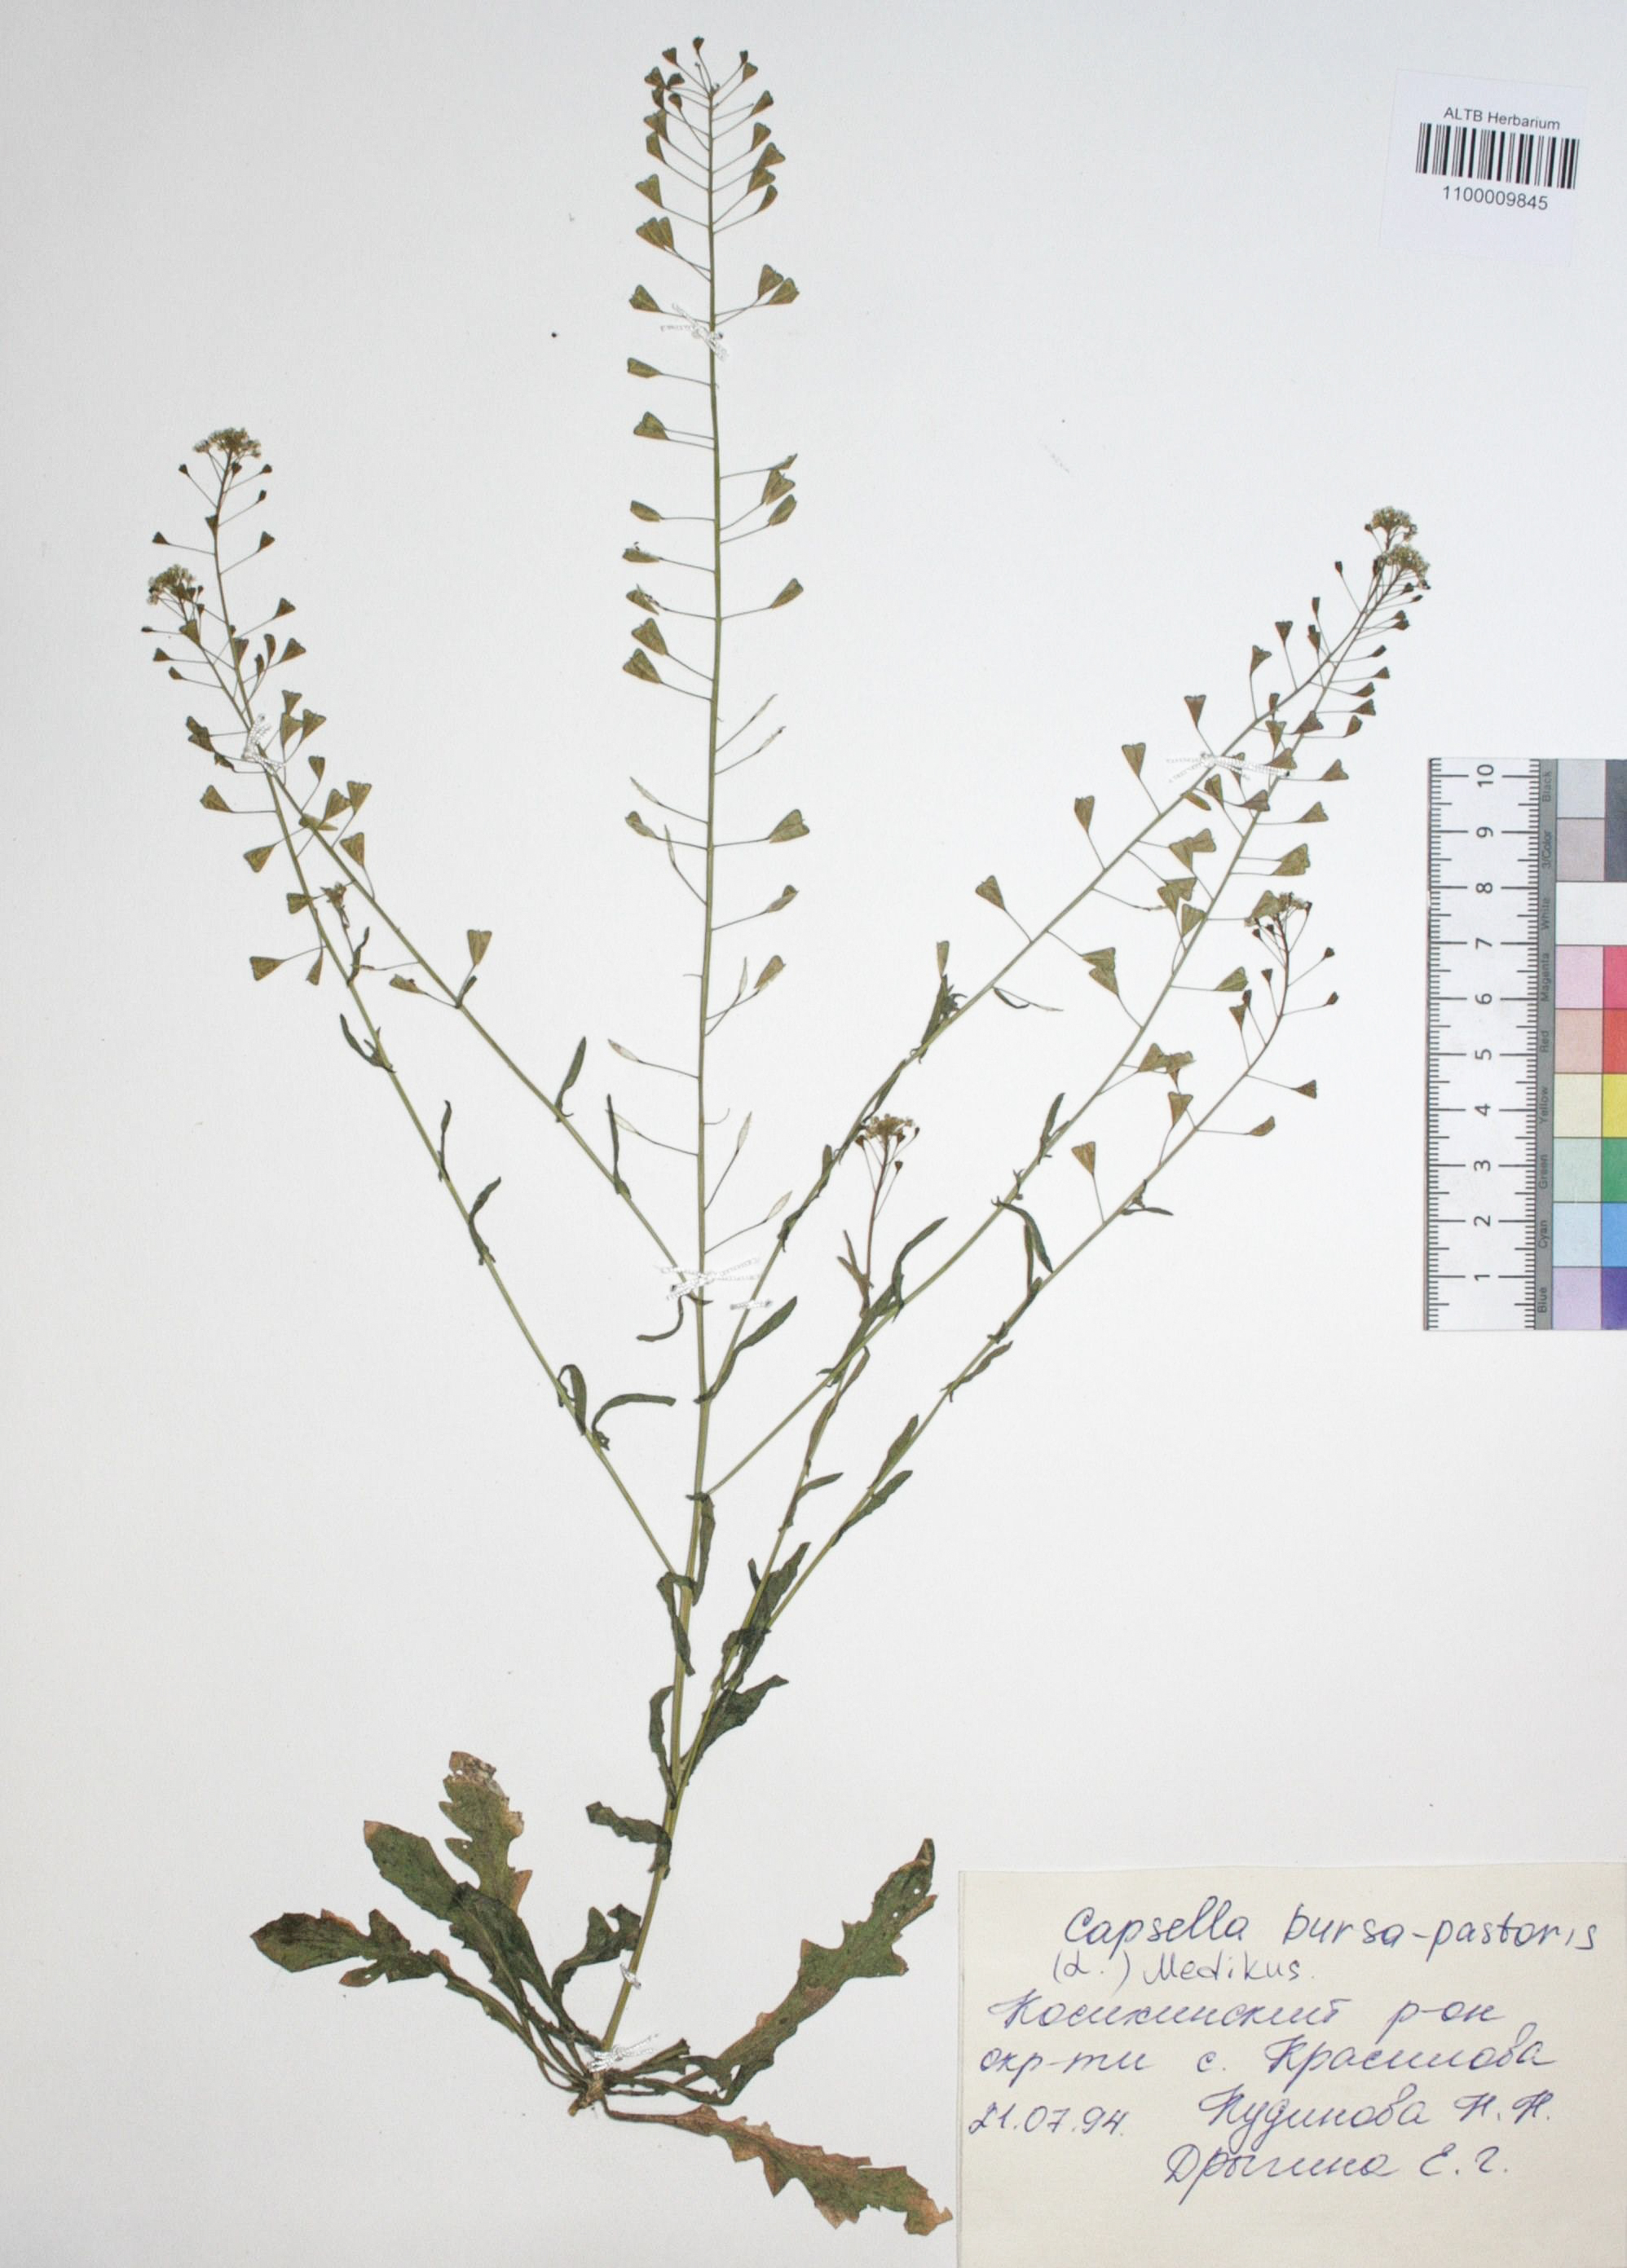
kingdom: Plantae
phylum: Tracheophyta
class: Magnoliopsida
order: Brassicales
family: Brassicaceae
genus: Capsella
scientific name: Capsella bursa-pastoris
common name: Shepherd's purse
